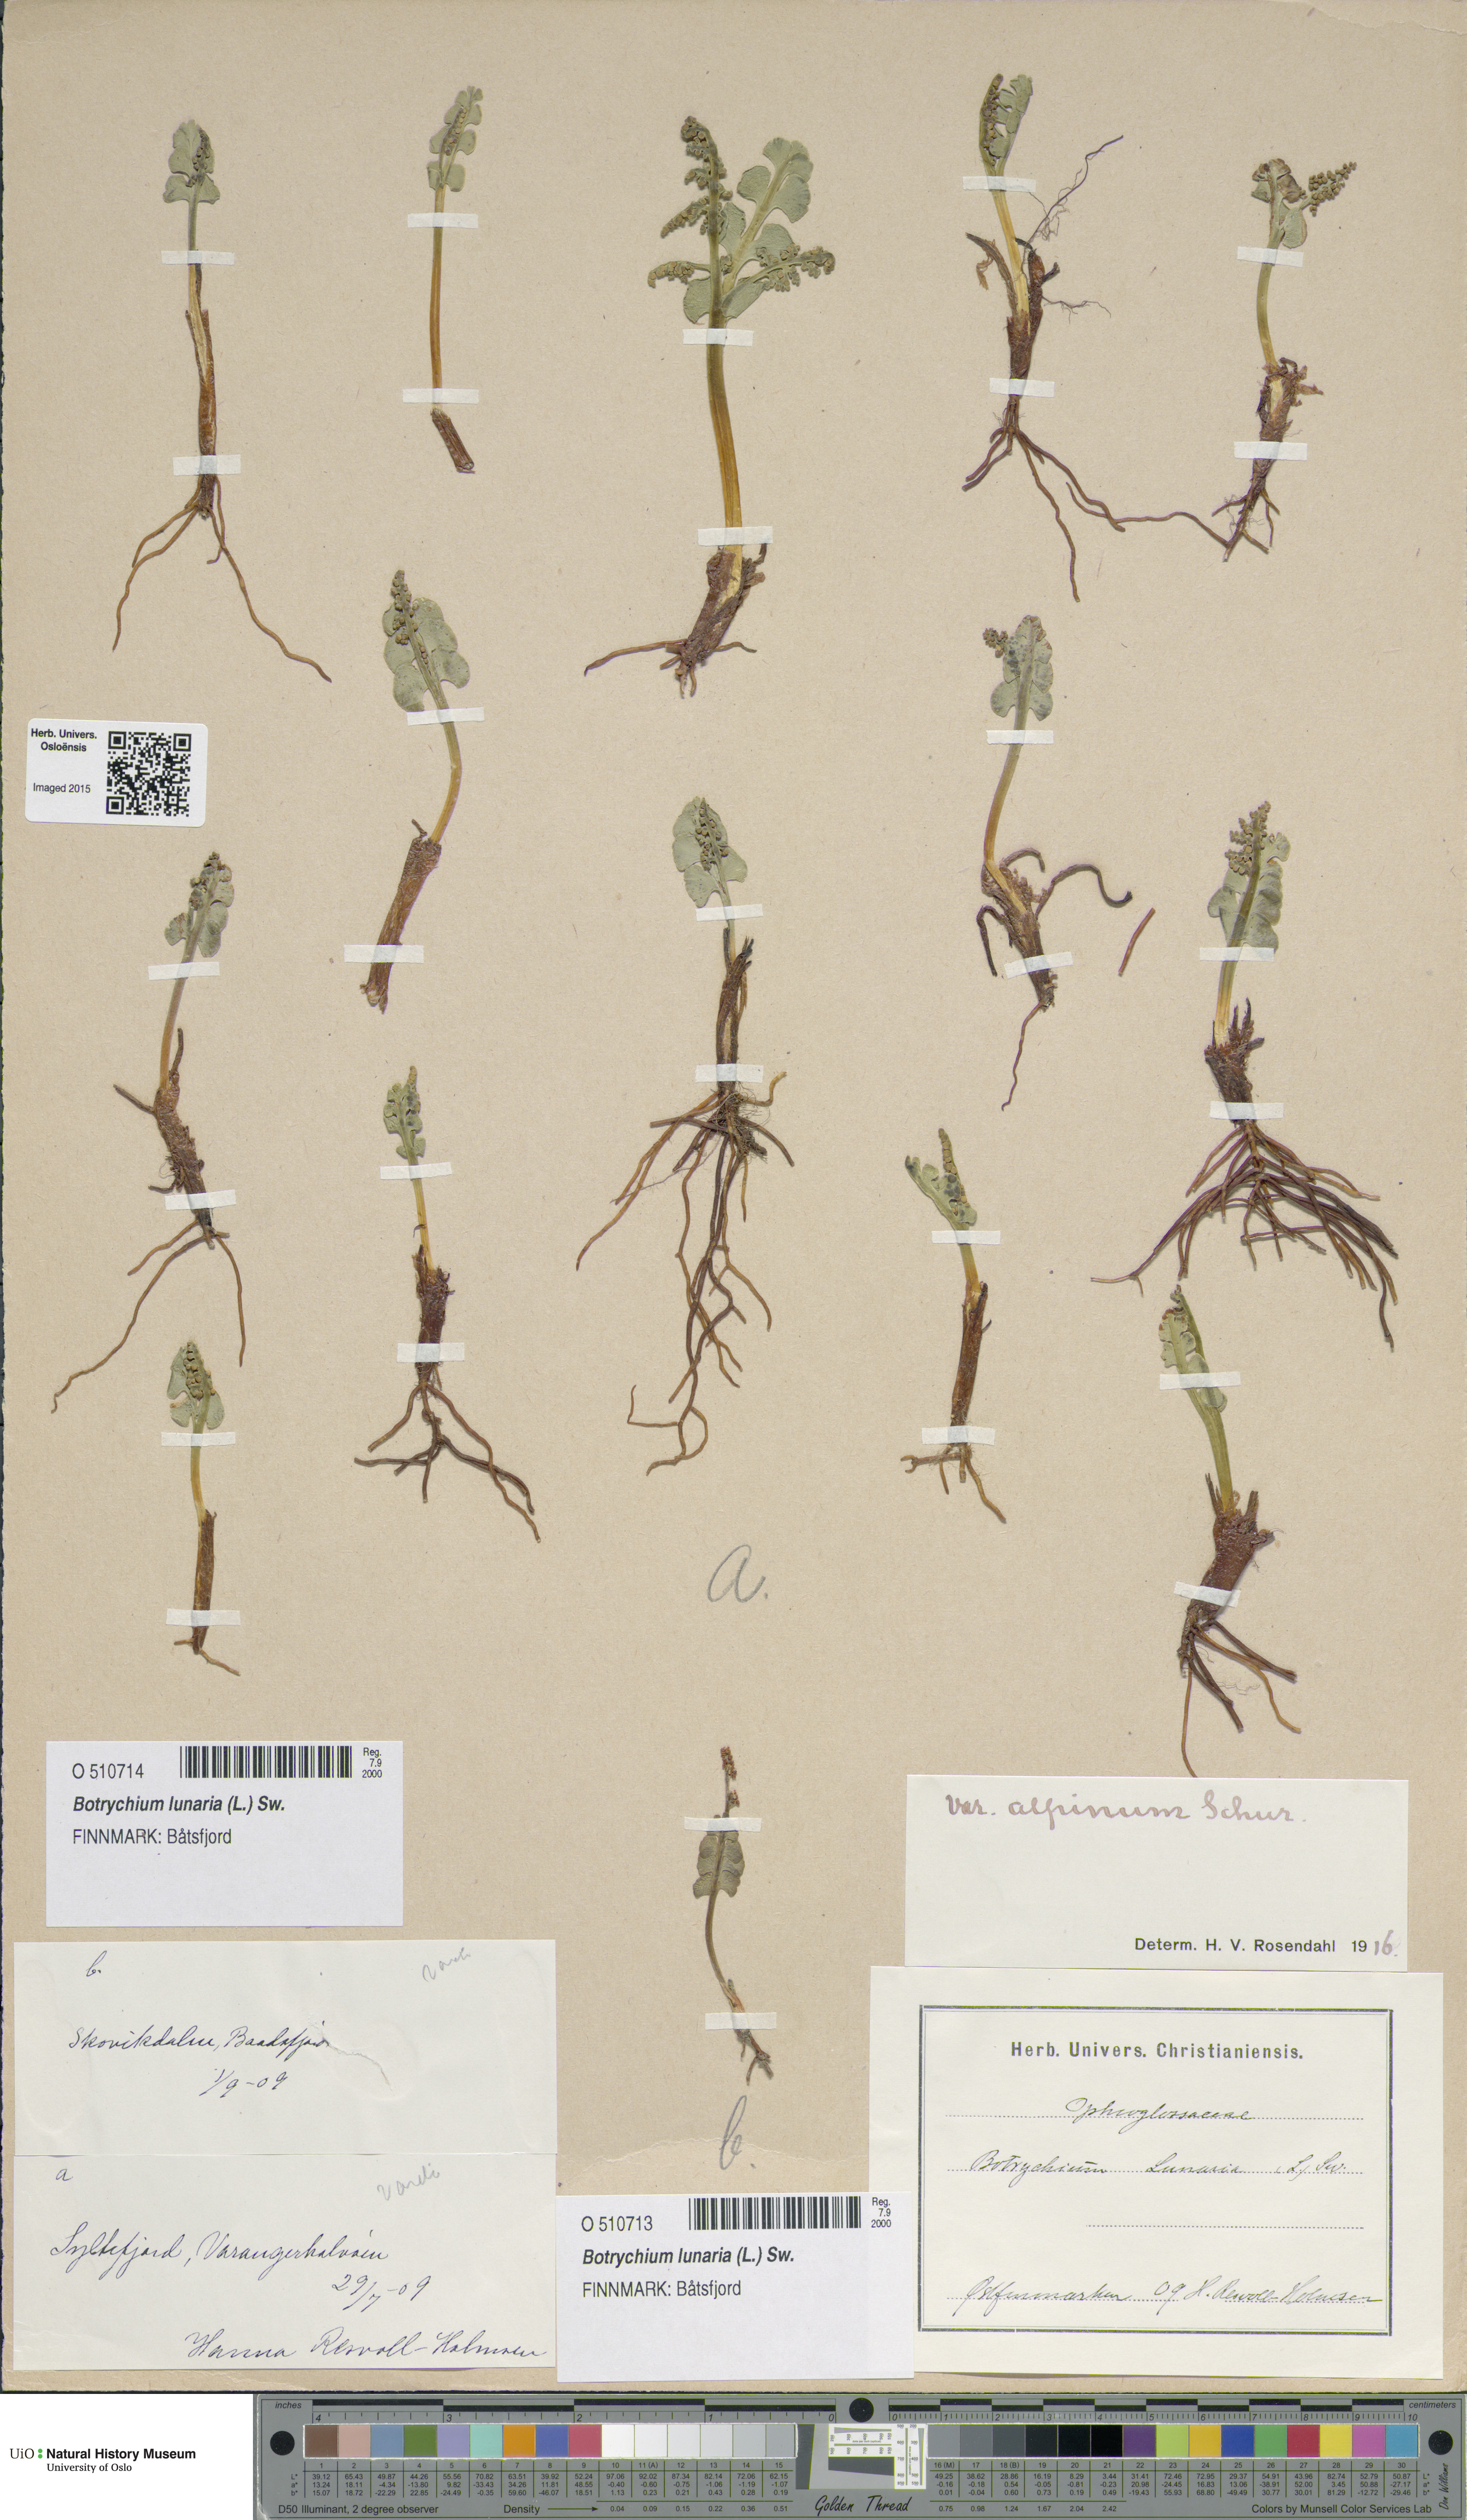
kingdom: Plantae
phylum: Tracheophyta
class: Polypodiopsida
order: Ophioglossales
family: Ophioglossaceae
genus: Botrychium
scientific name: Botrychium lunaria
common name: Moonwort
